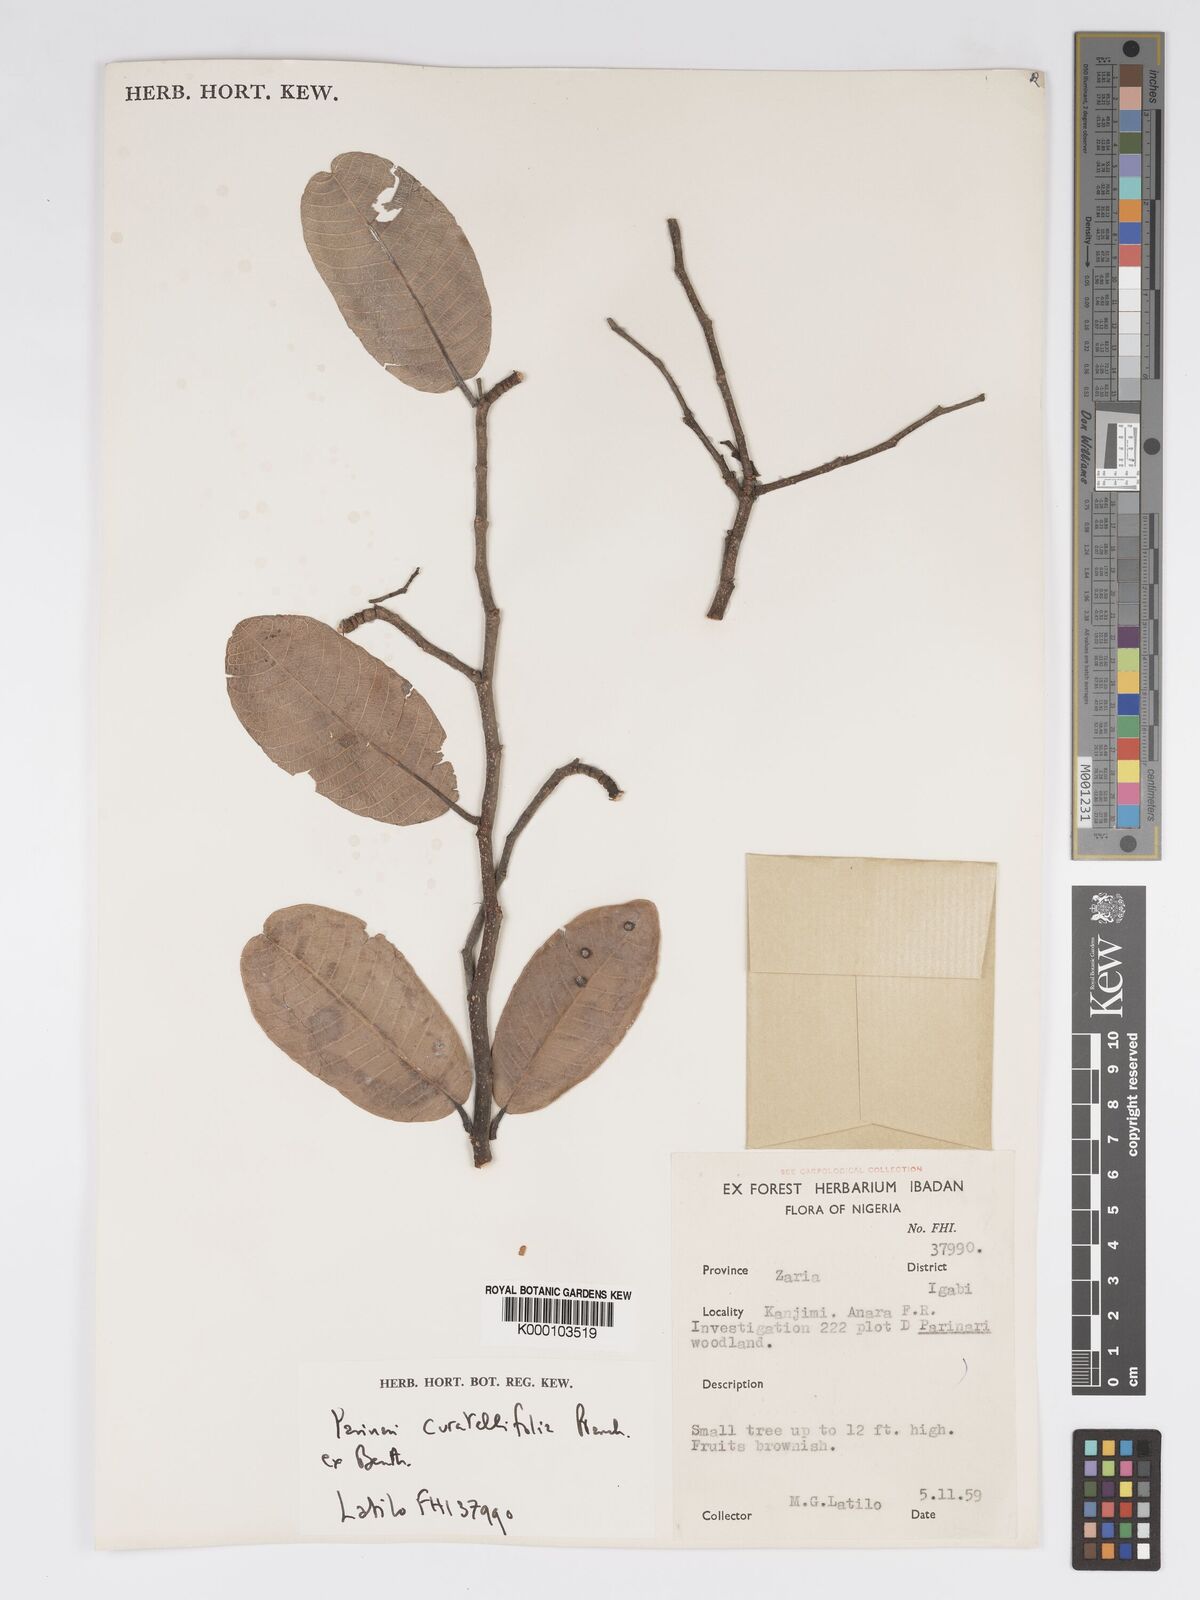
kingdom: Plantae
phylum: Tracheophyta
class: Magnoliopsida
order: Malpighiales
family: Chrysobalanaceae
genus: Parinari
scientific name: Parinari curatellifolia
